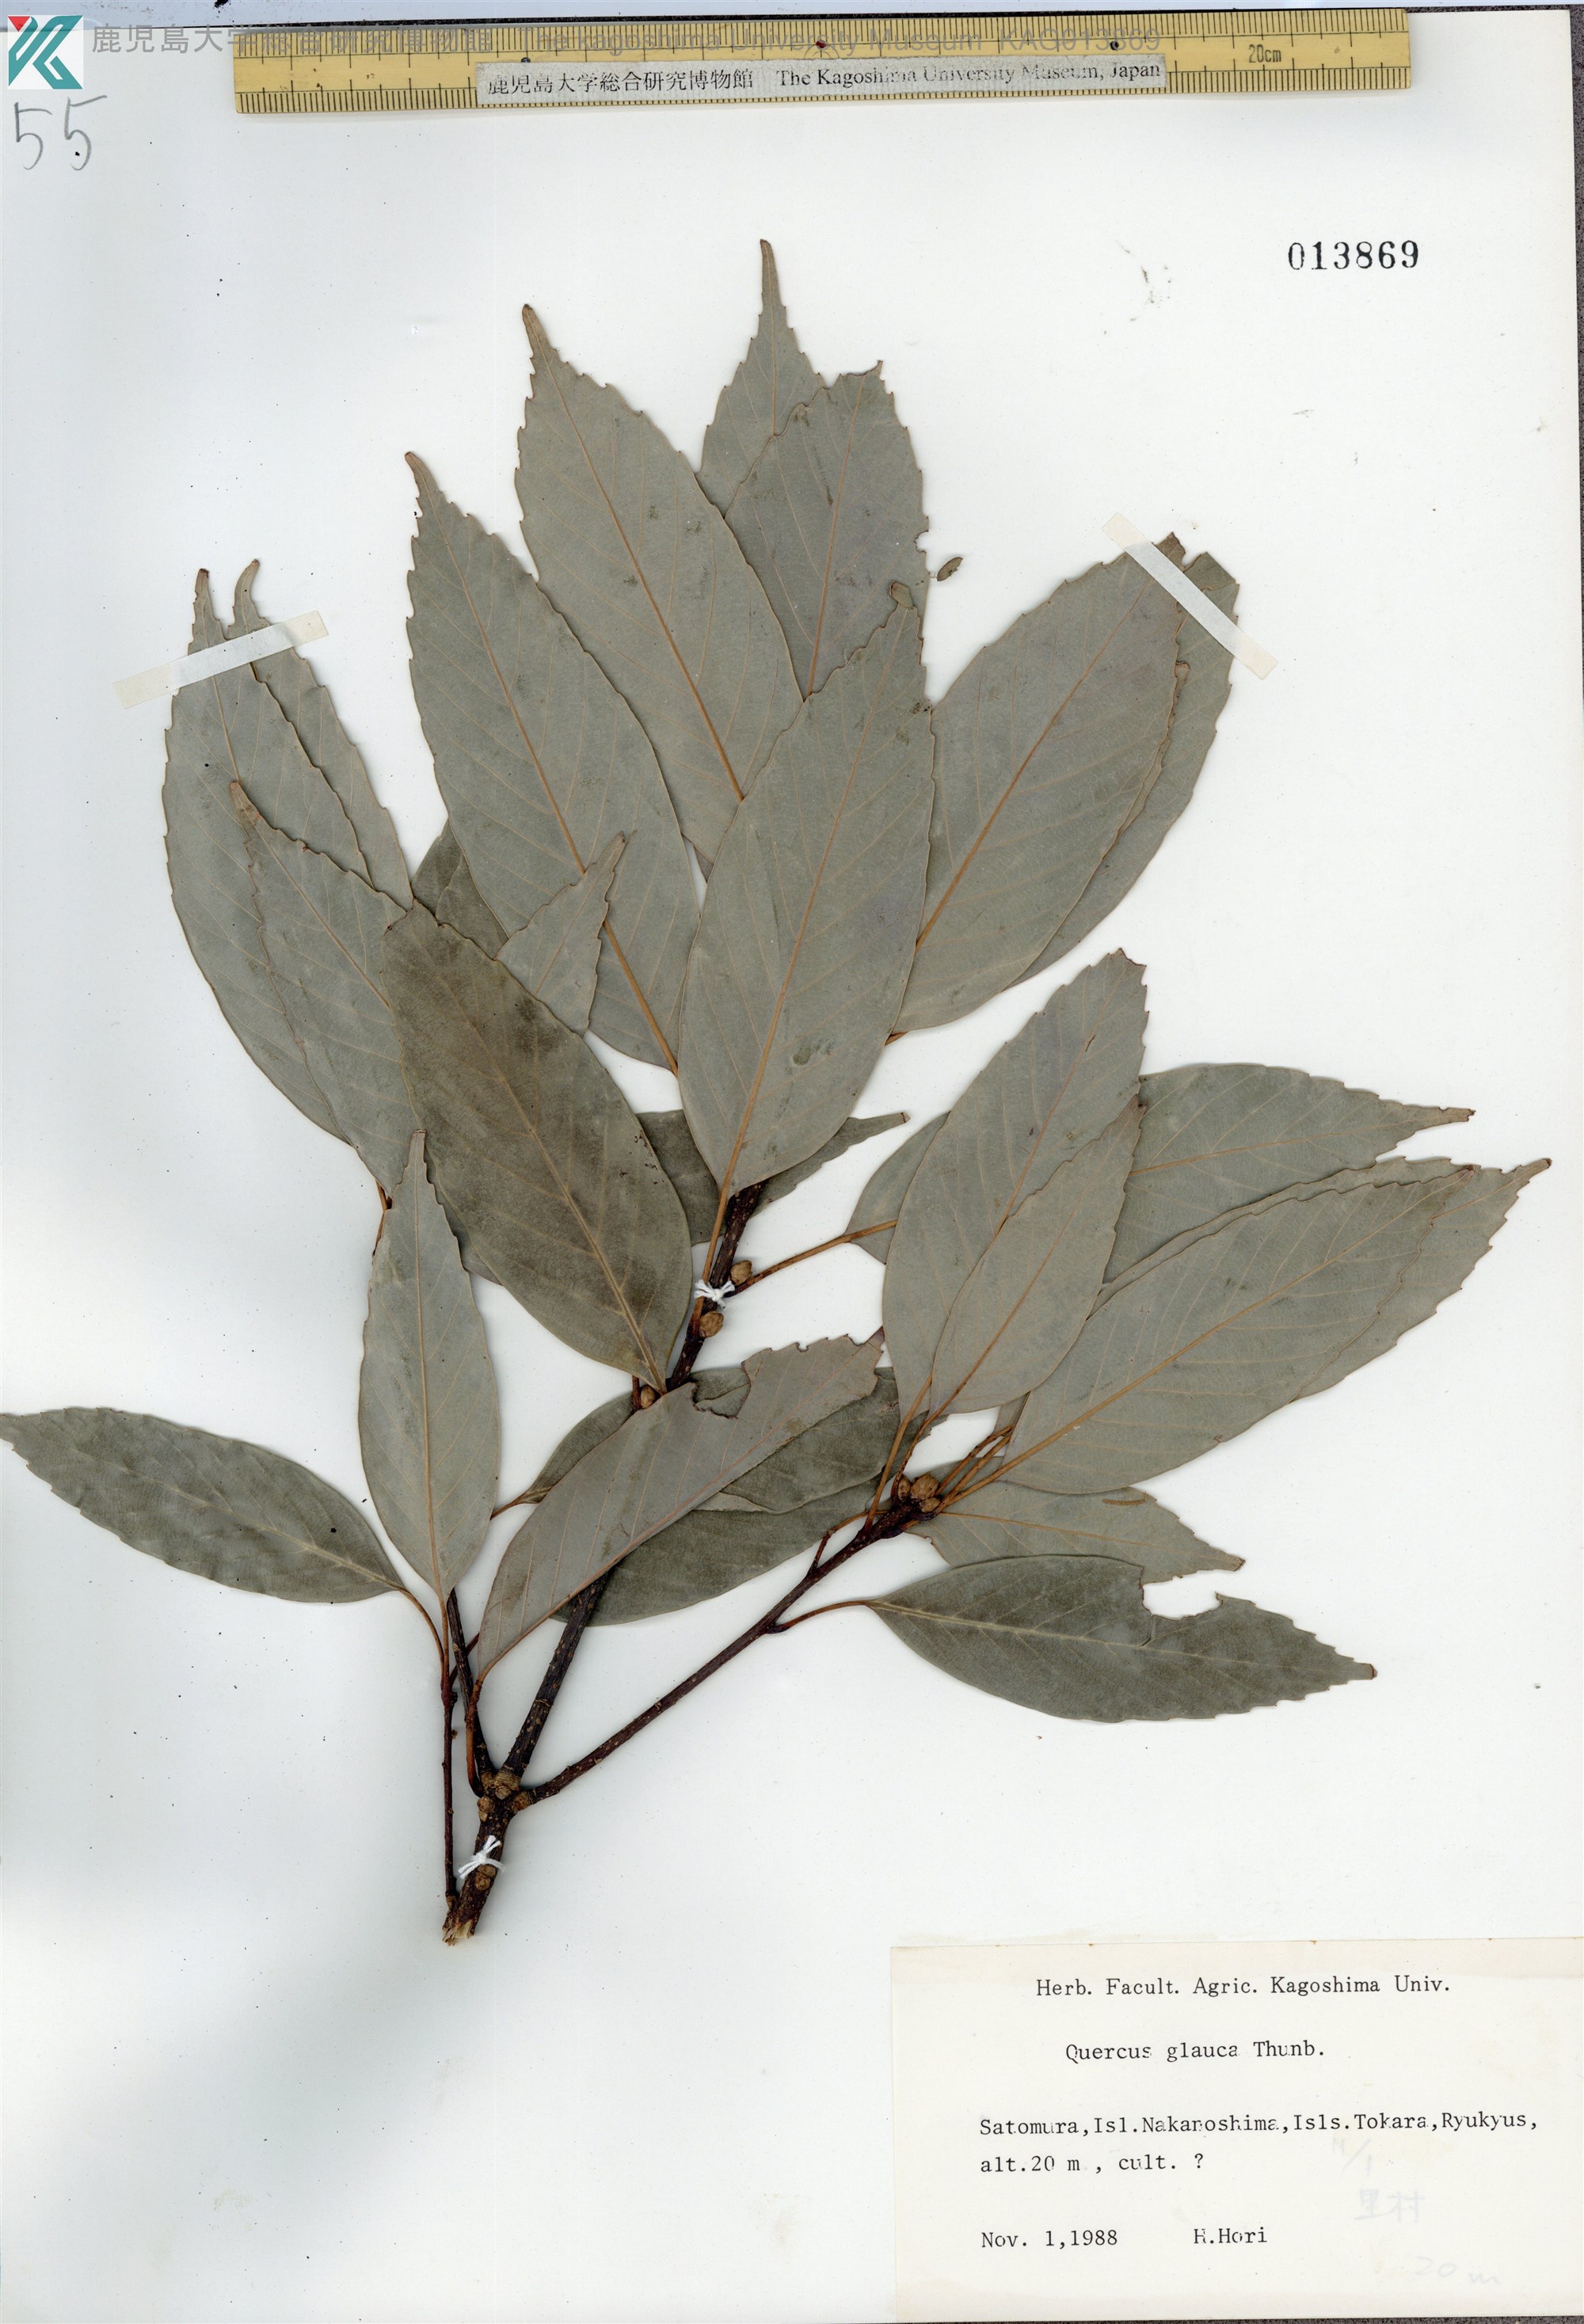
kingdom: Plantae
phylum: Tracheophyta
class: Magnoliopsida
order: Fagales
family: Fagaceae
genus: Quercus
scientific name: Quercus glauca
